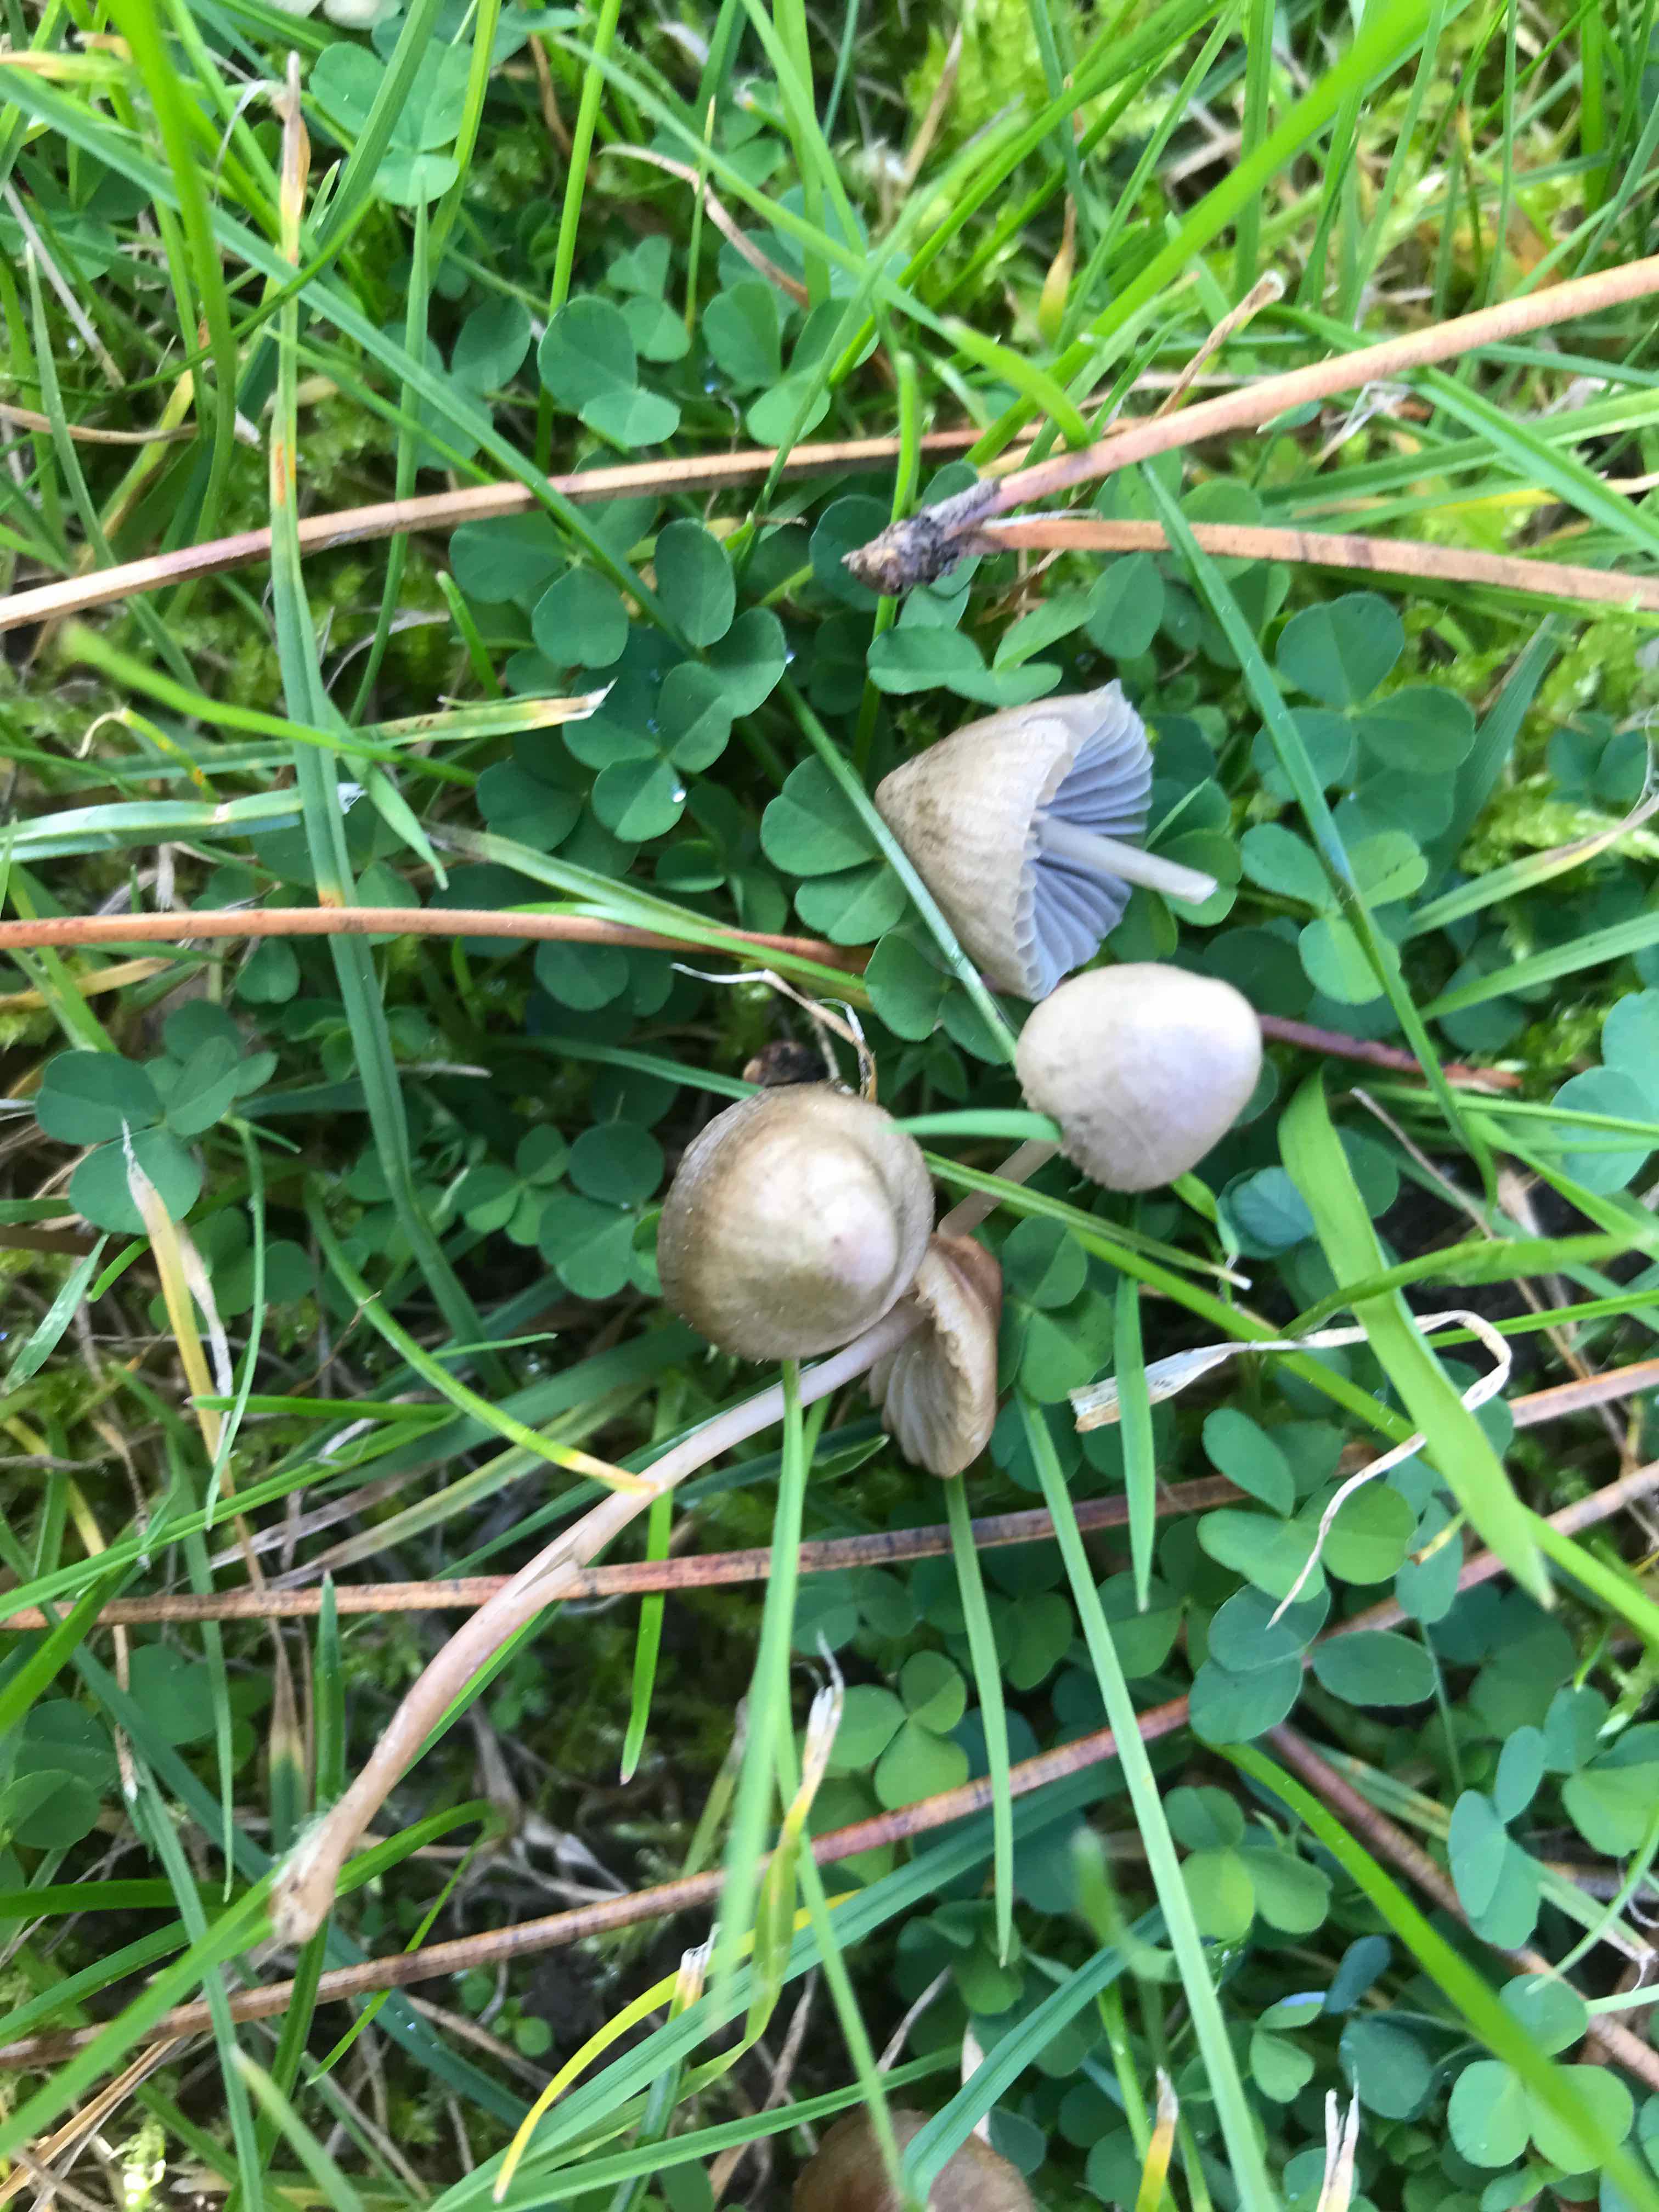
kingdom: Fungi
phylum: Basidiomycota
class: Agaricomycetes
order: Agaricales
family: Mycenaceae
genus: Mycena
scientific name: Mycena
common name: huesvamp
